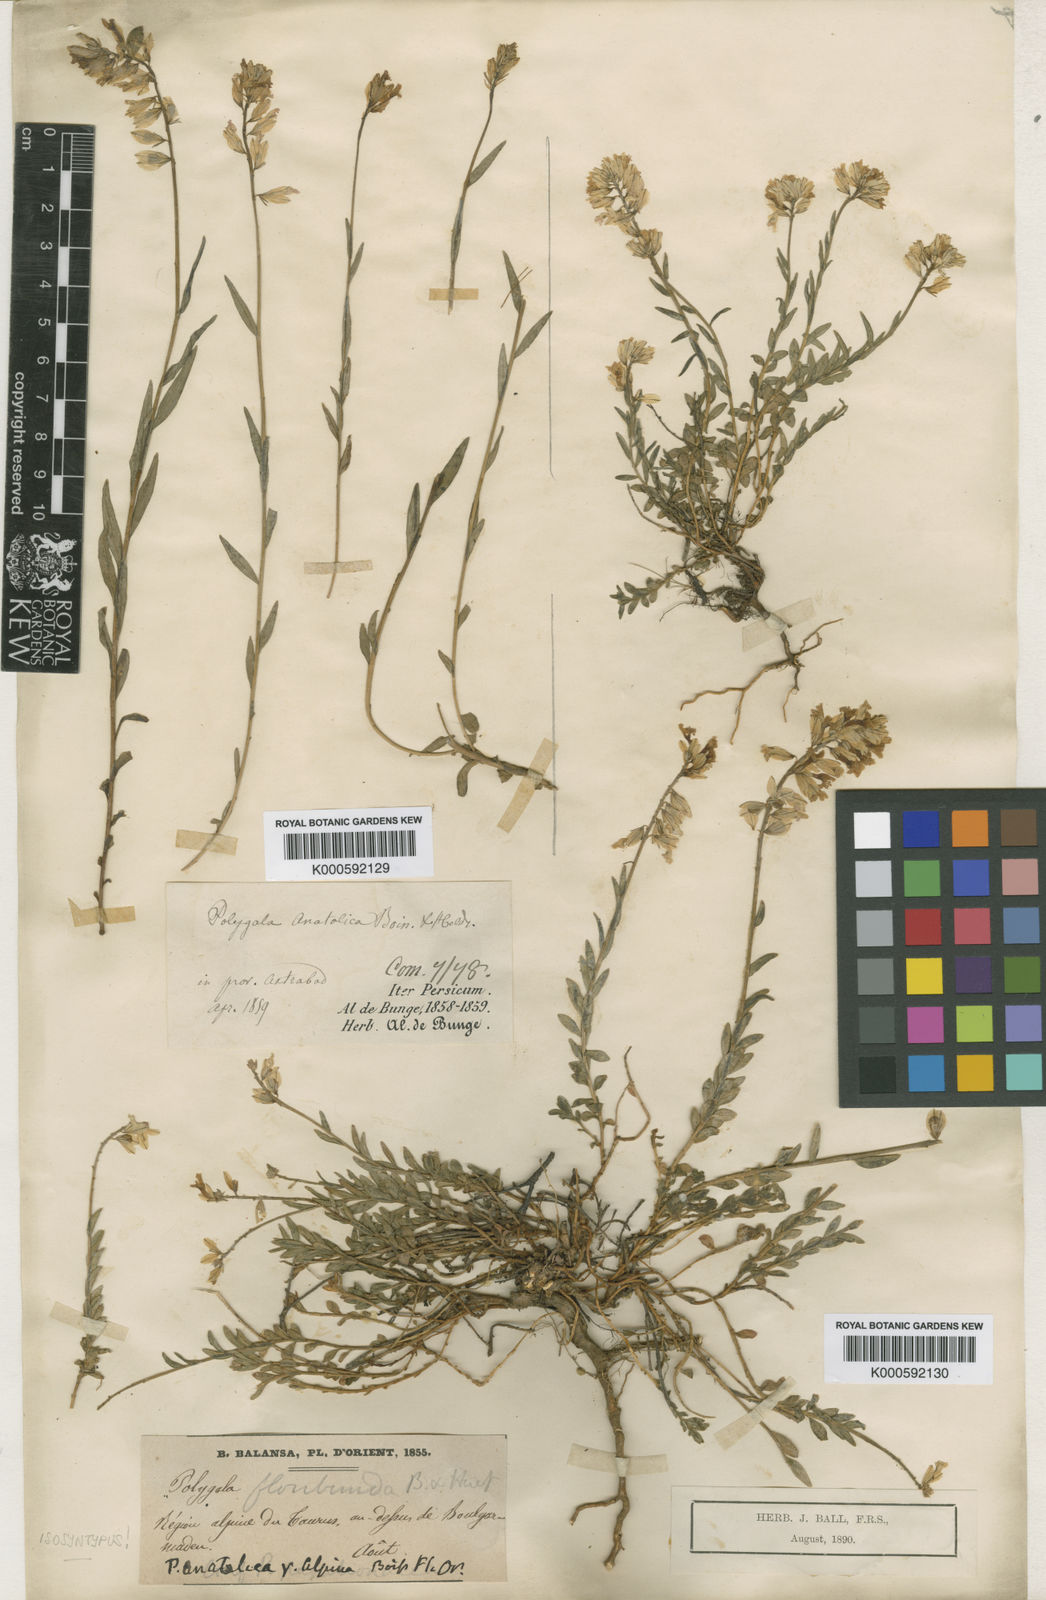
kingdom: Plantae
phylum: Tracheophyta
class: Magnoliopsida
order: Fabales
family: Polygalaceae
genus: Polygala
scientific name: Polygala anatolica
